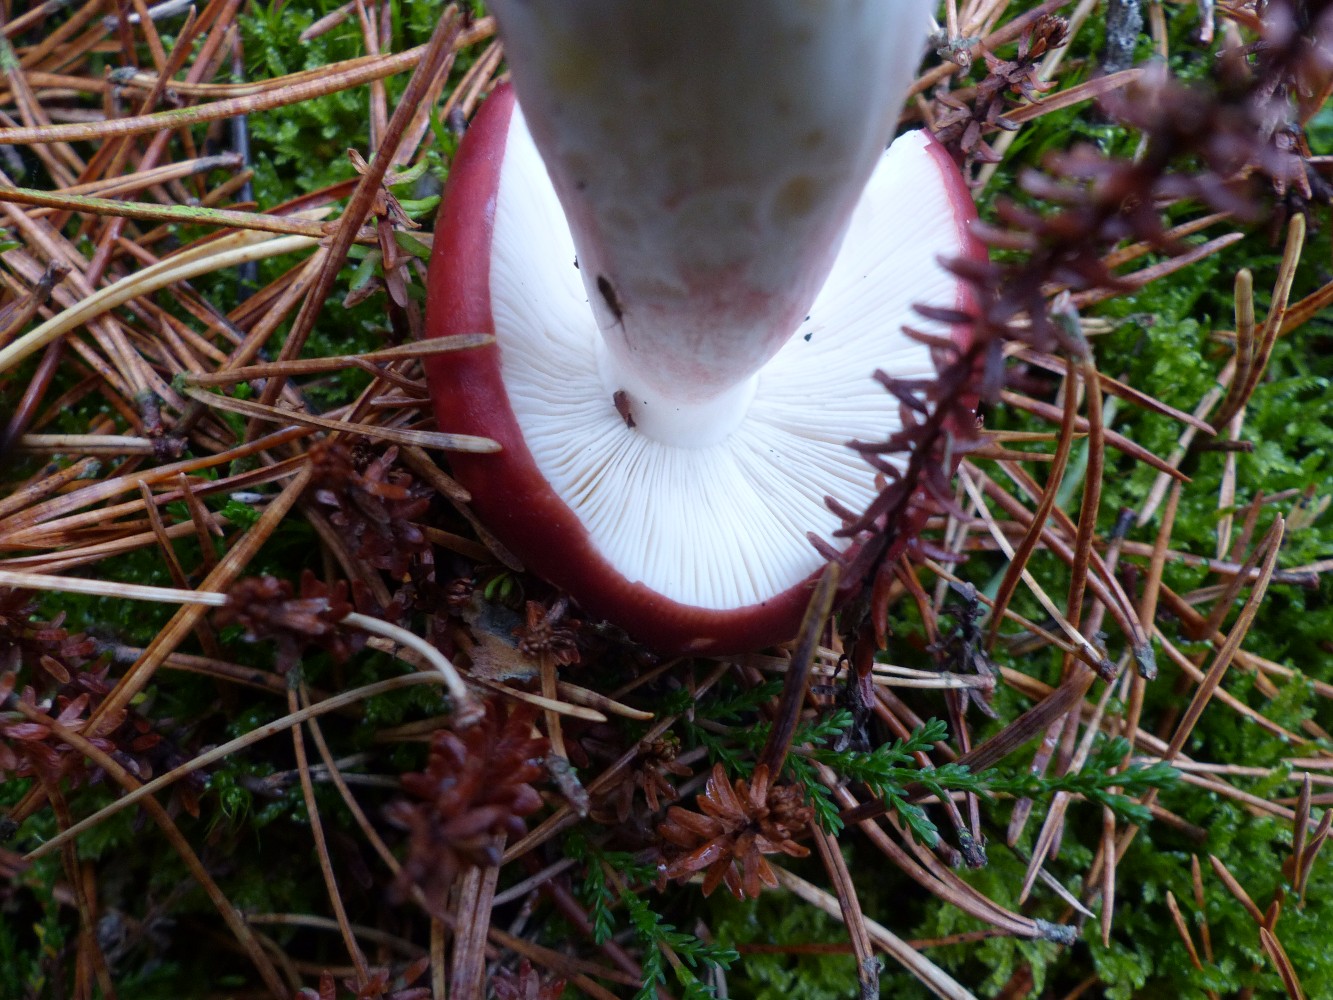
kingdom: Fungi
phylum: Basidiomycota
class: Agaricomycetes
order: Russulales
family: Russulaceae
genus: Russula
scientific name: Russula paludosa
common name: prægtig skørhat
